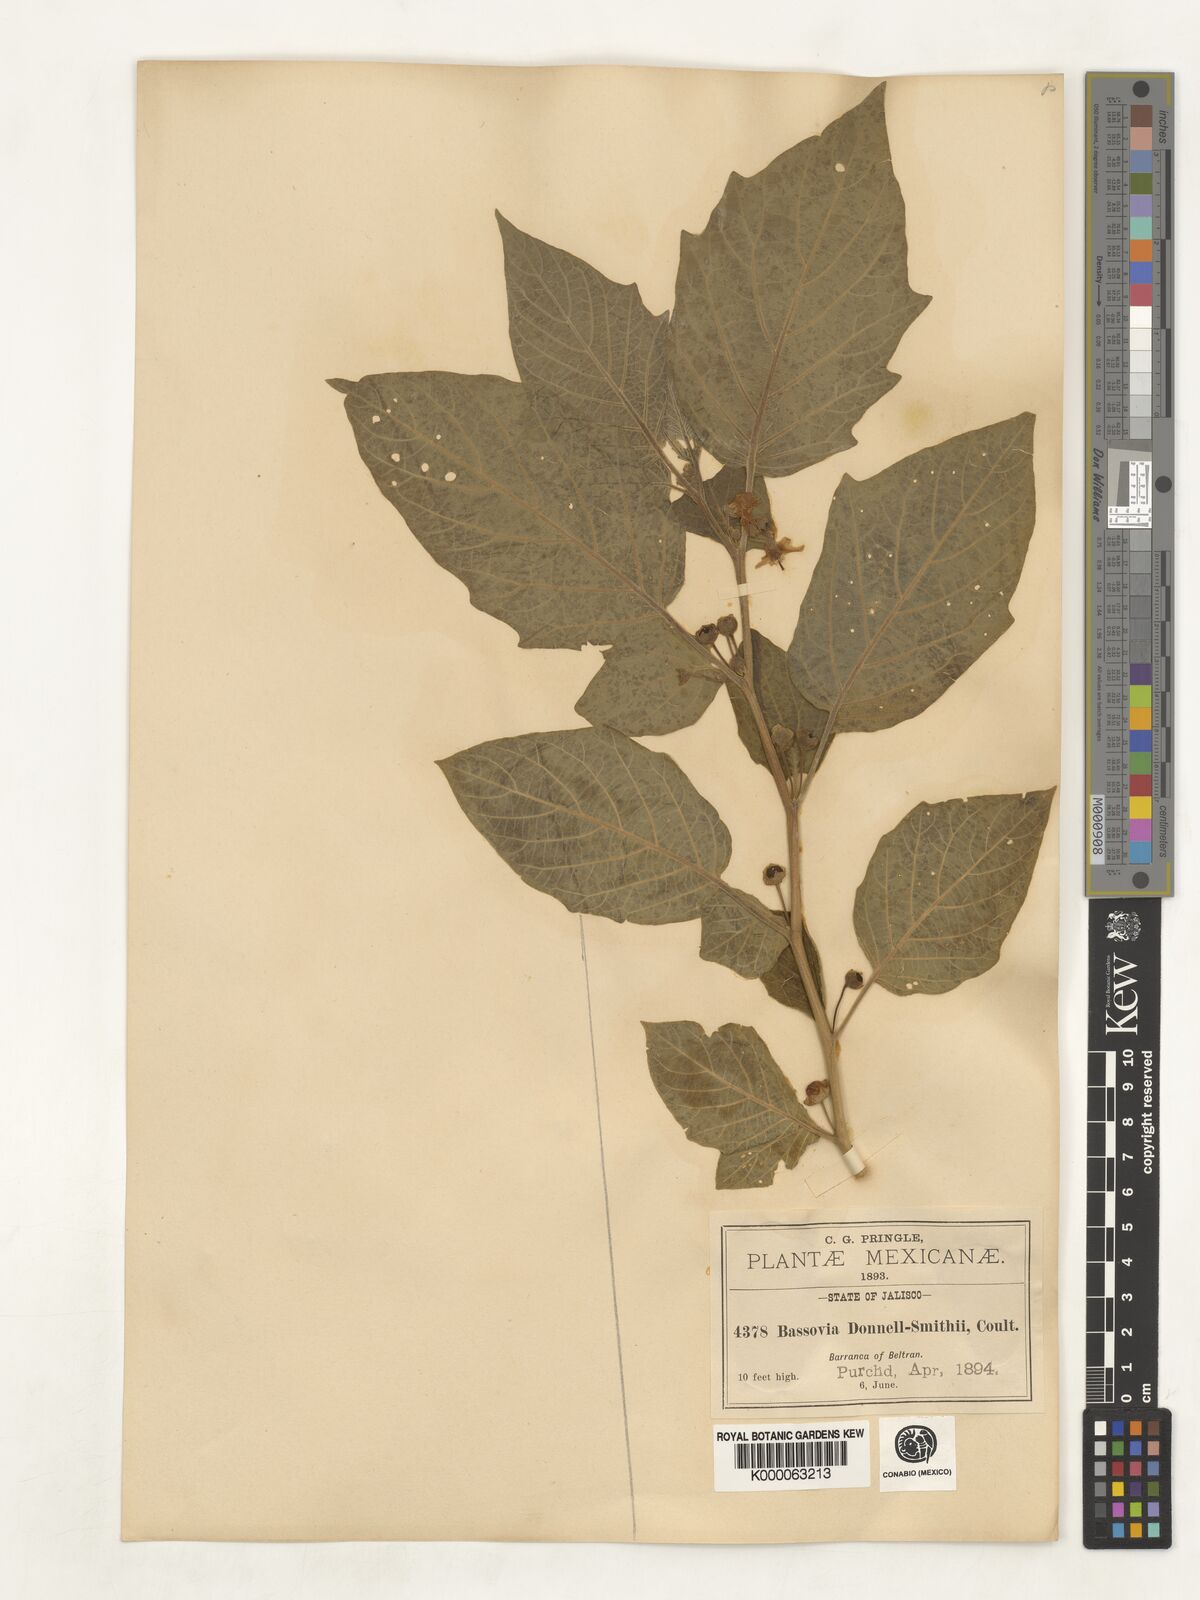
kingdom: Plantae
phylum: Tracheophyta
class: Magnoliopsida
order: Solanales
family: Solanaceae
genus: Brachistus
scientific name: Brachistus stramonifolius
